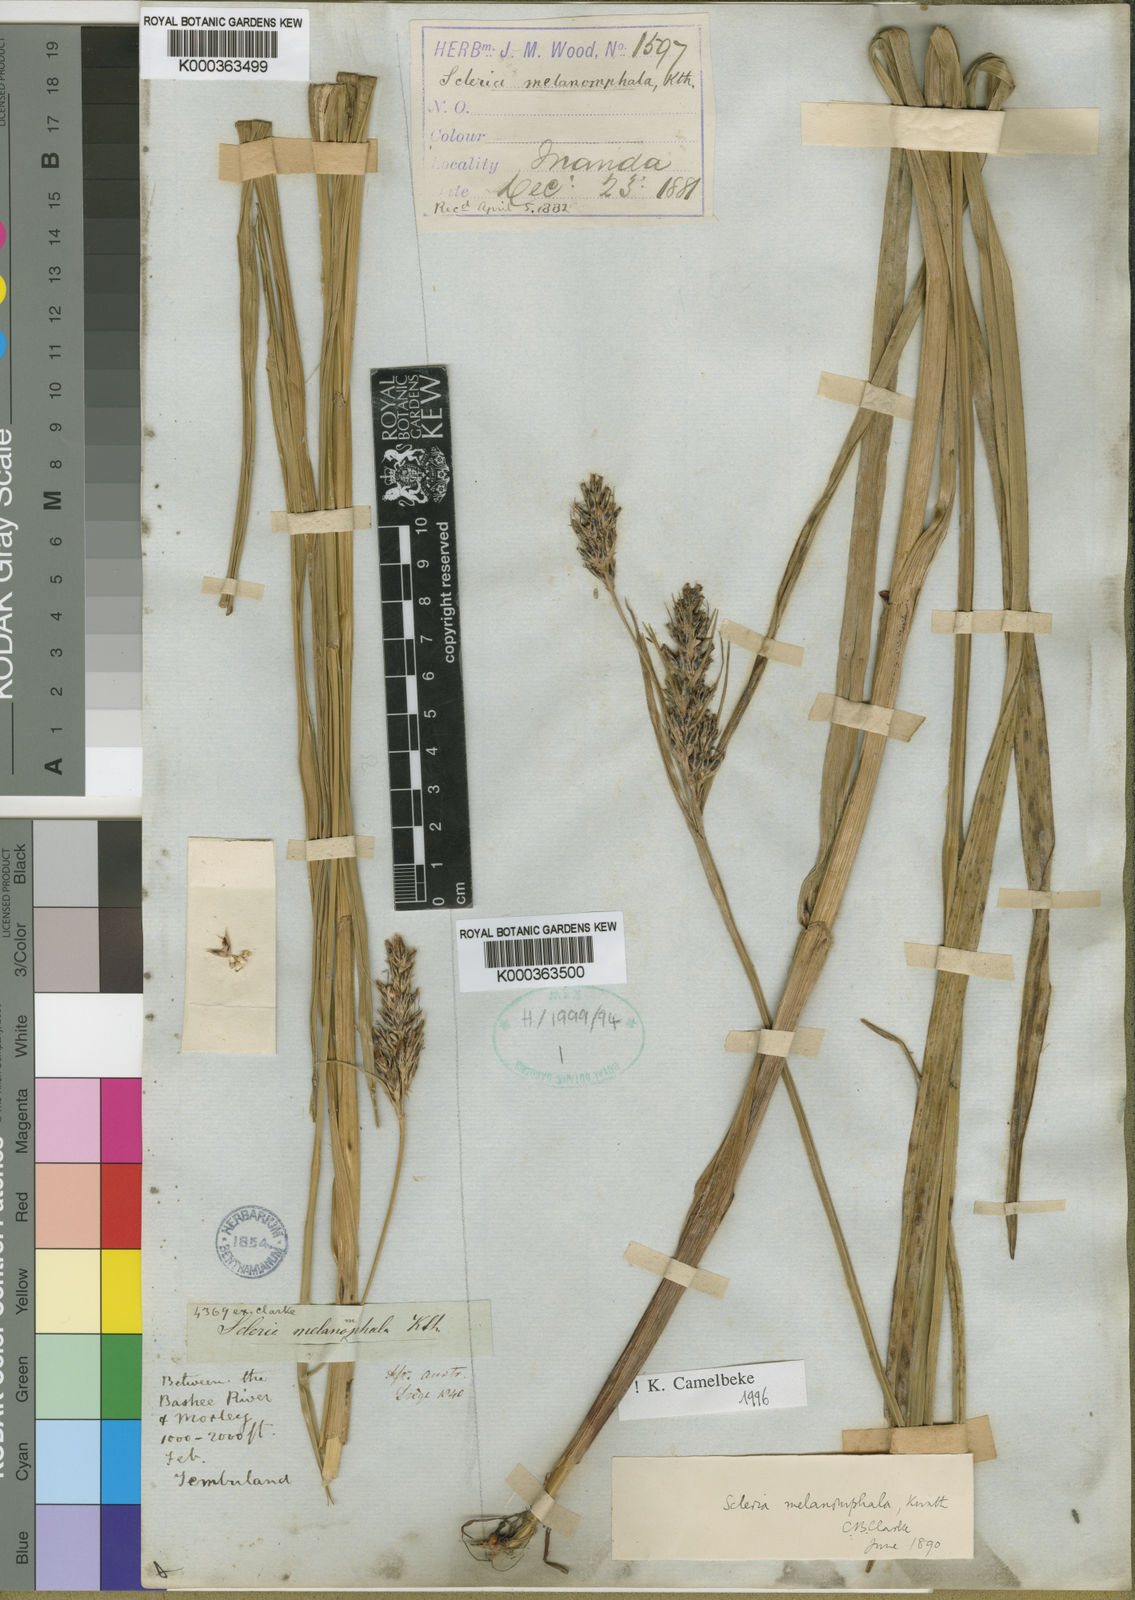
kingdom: Plantae
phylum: Tracheophyta
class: Liliopsida
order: Poales
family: Cyperaceae
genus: Scleria
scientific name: Scleria melanomphala
